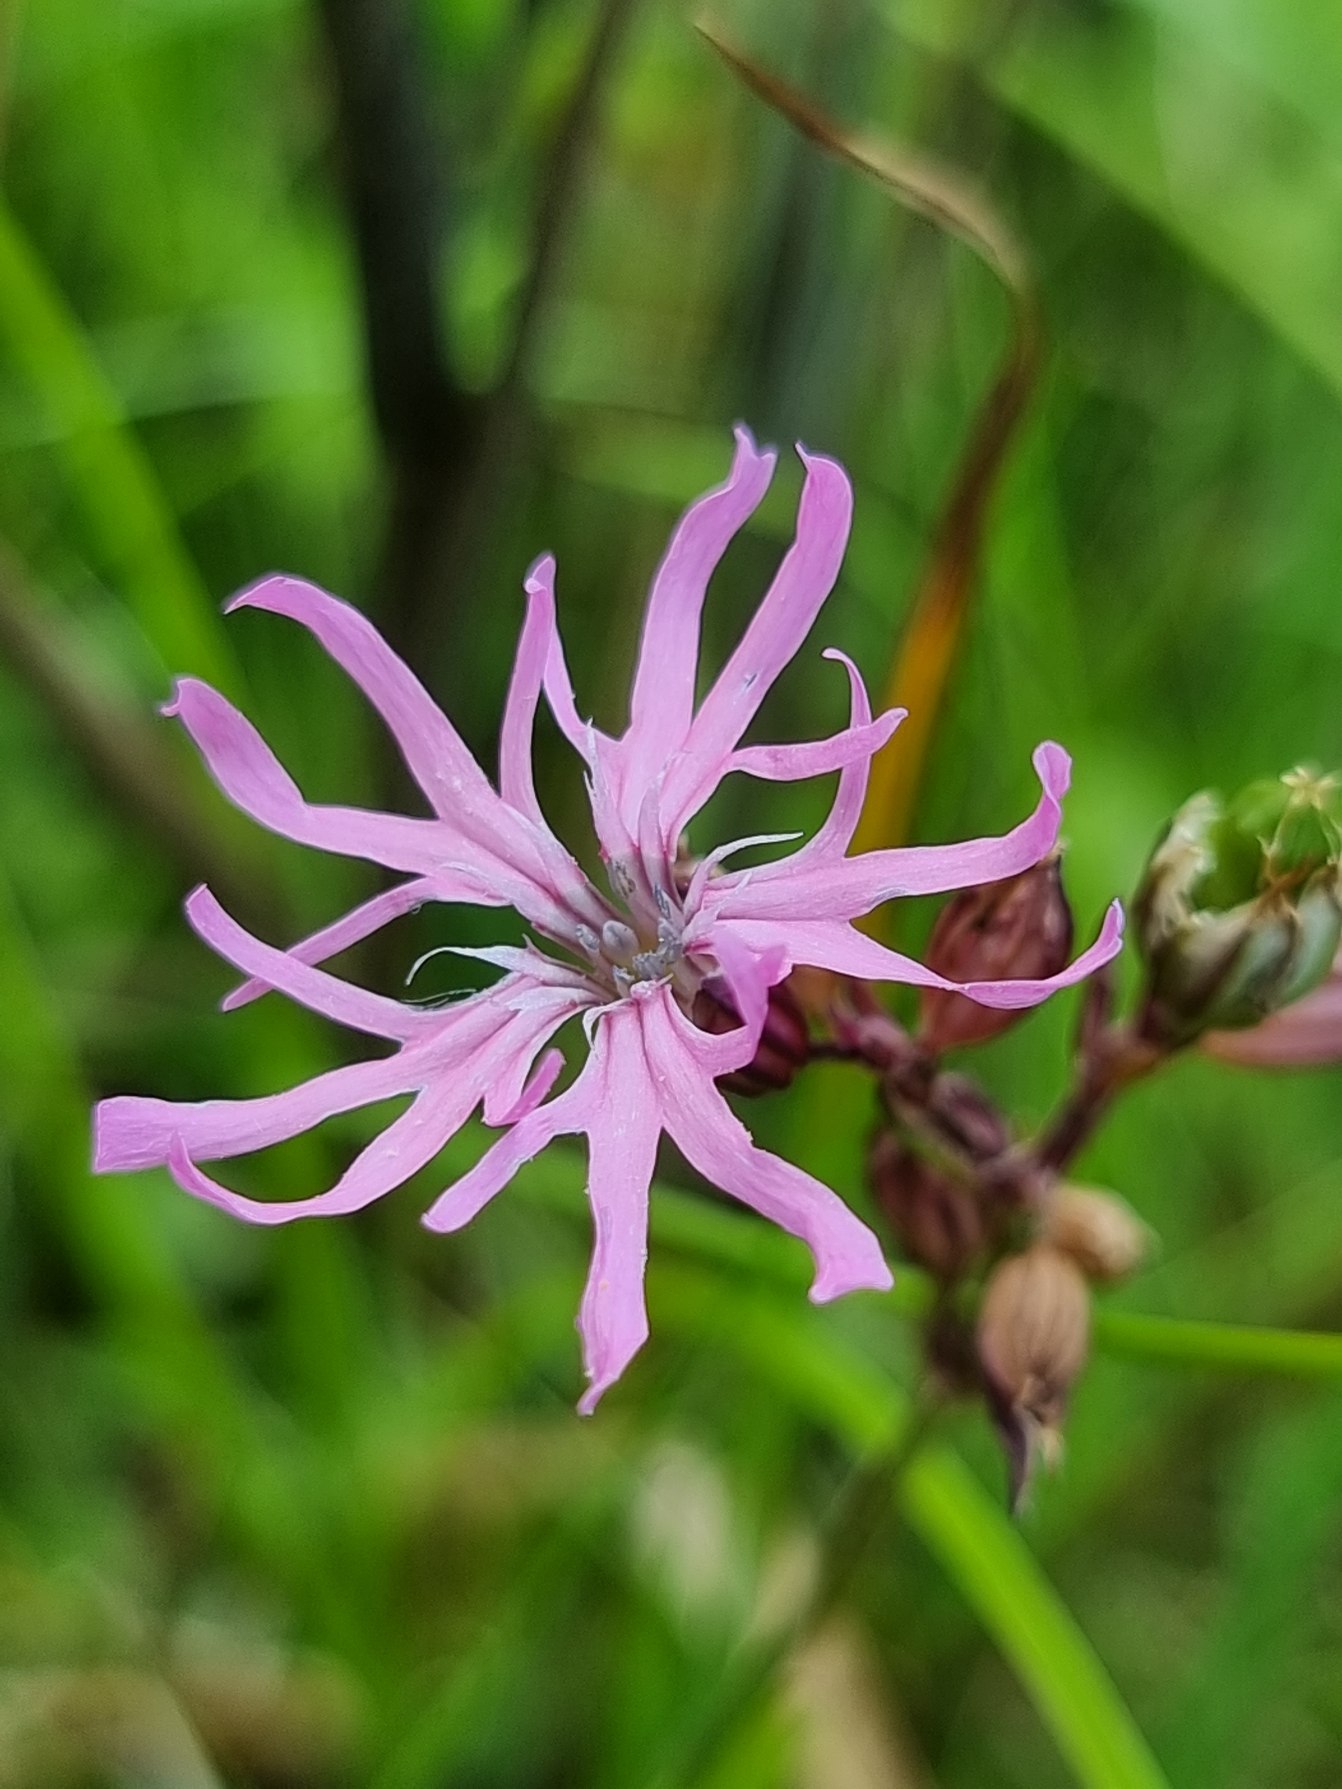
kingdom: Plantae
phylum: Tracheophyta
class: Magnoliopsida
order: Caryophyllales
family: Caryophyllaceae
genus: Silene
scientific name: Silene flos-cuculi
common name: Trævlekrone
